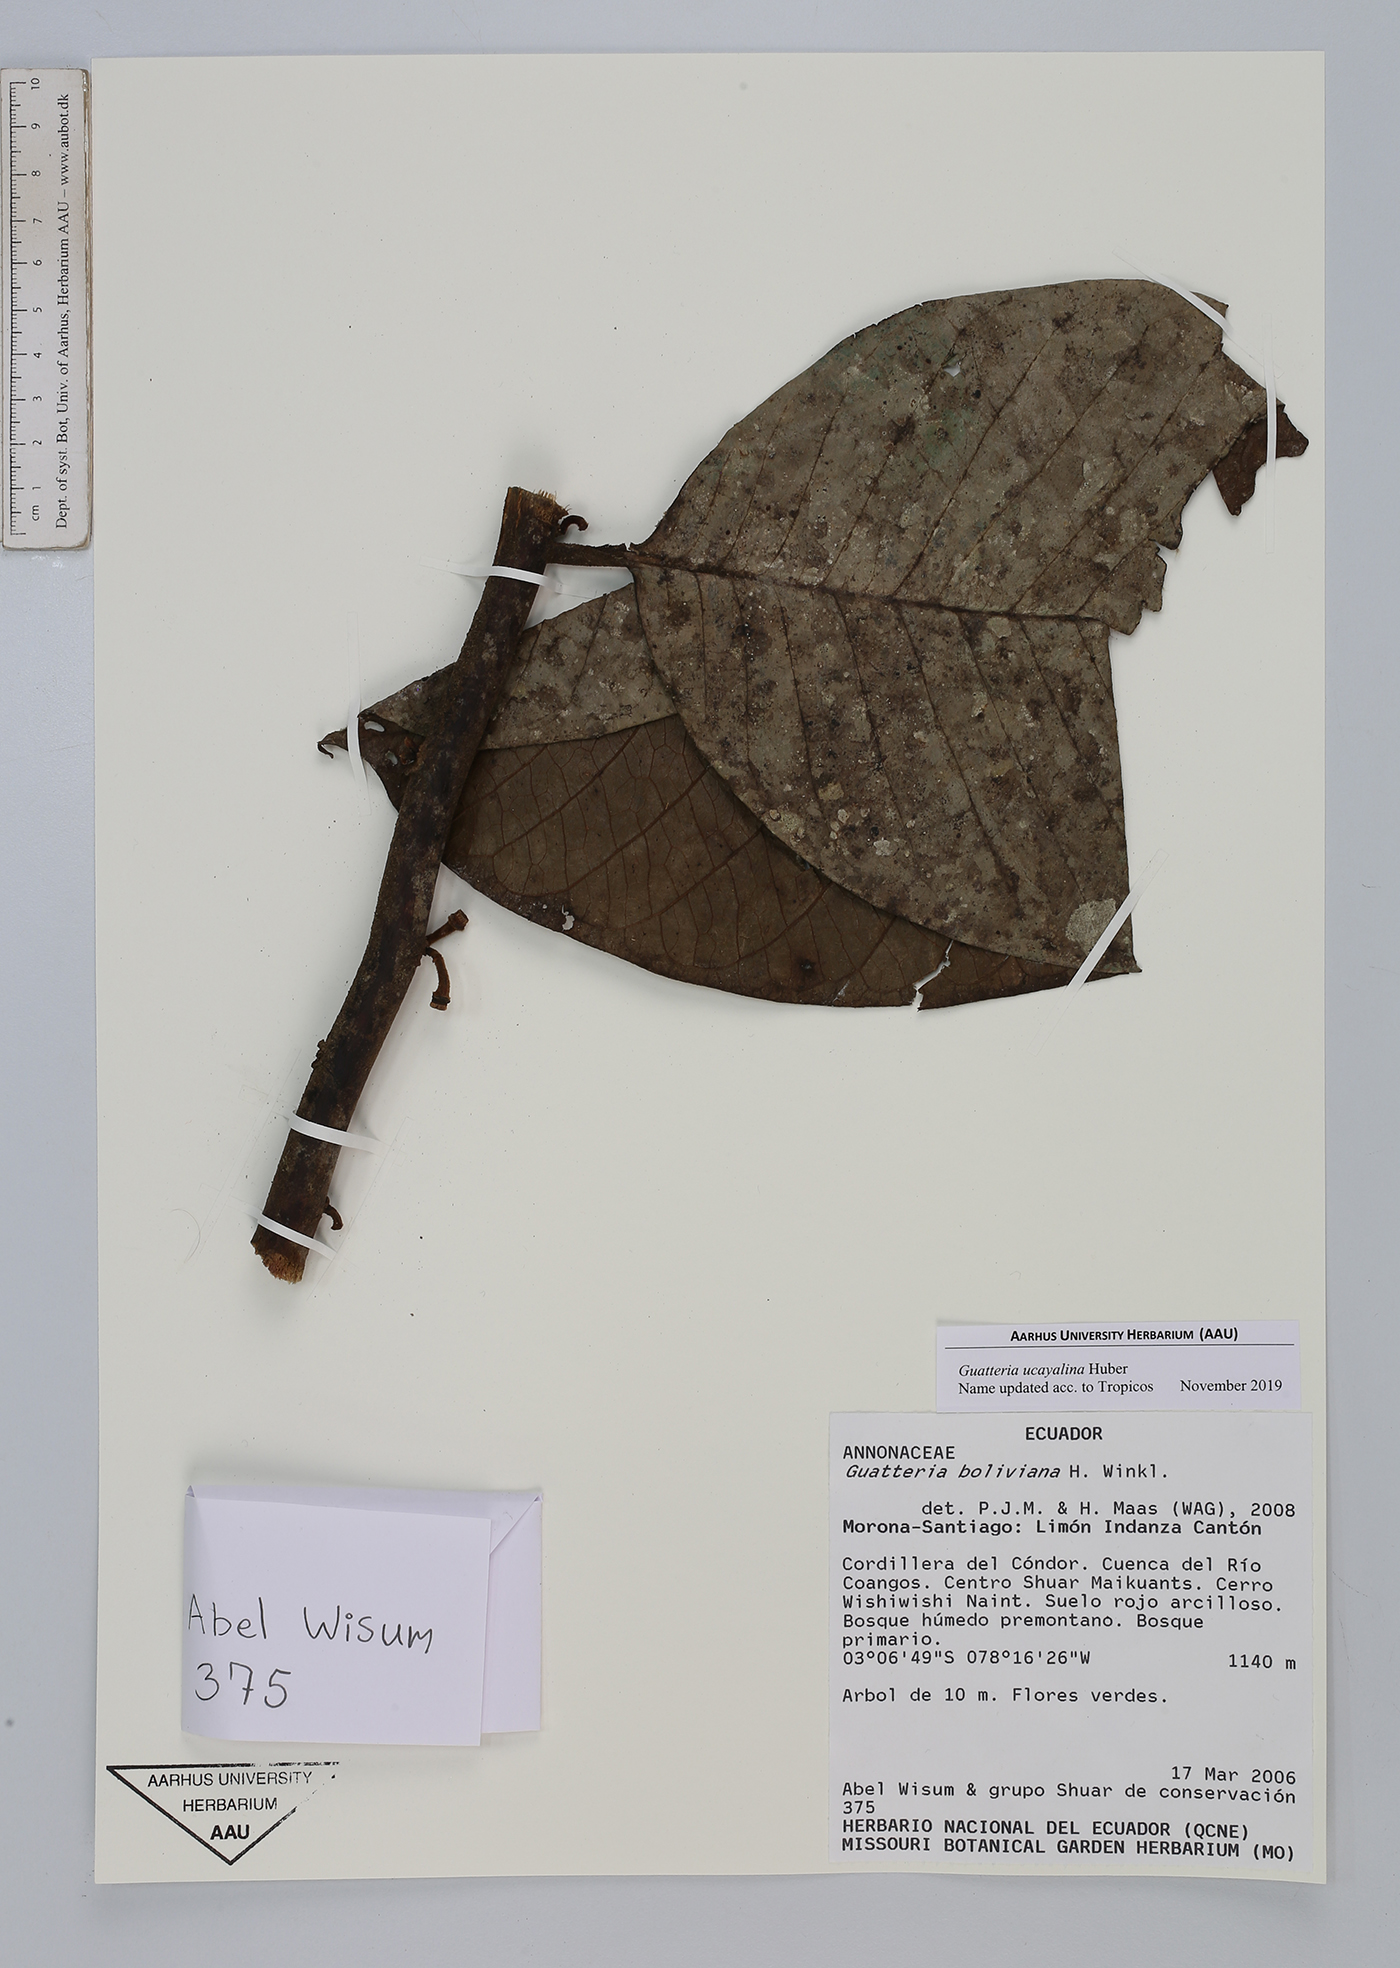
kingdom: Plantae
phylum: Tracheophyta
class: Magnoliopsida
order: Magnoliales
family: Annonaceae
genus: Guatteria
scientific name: Guatteria blepharophylla
